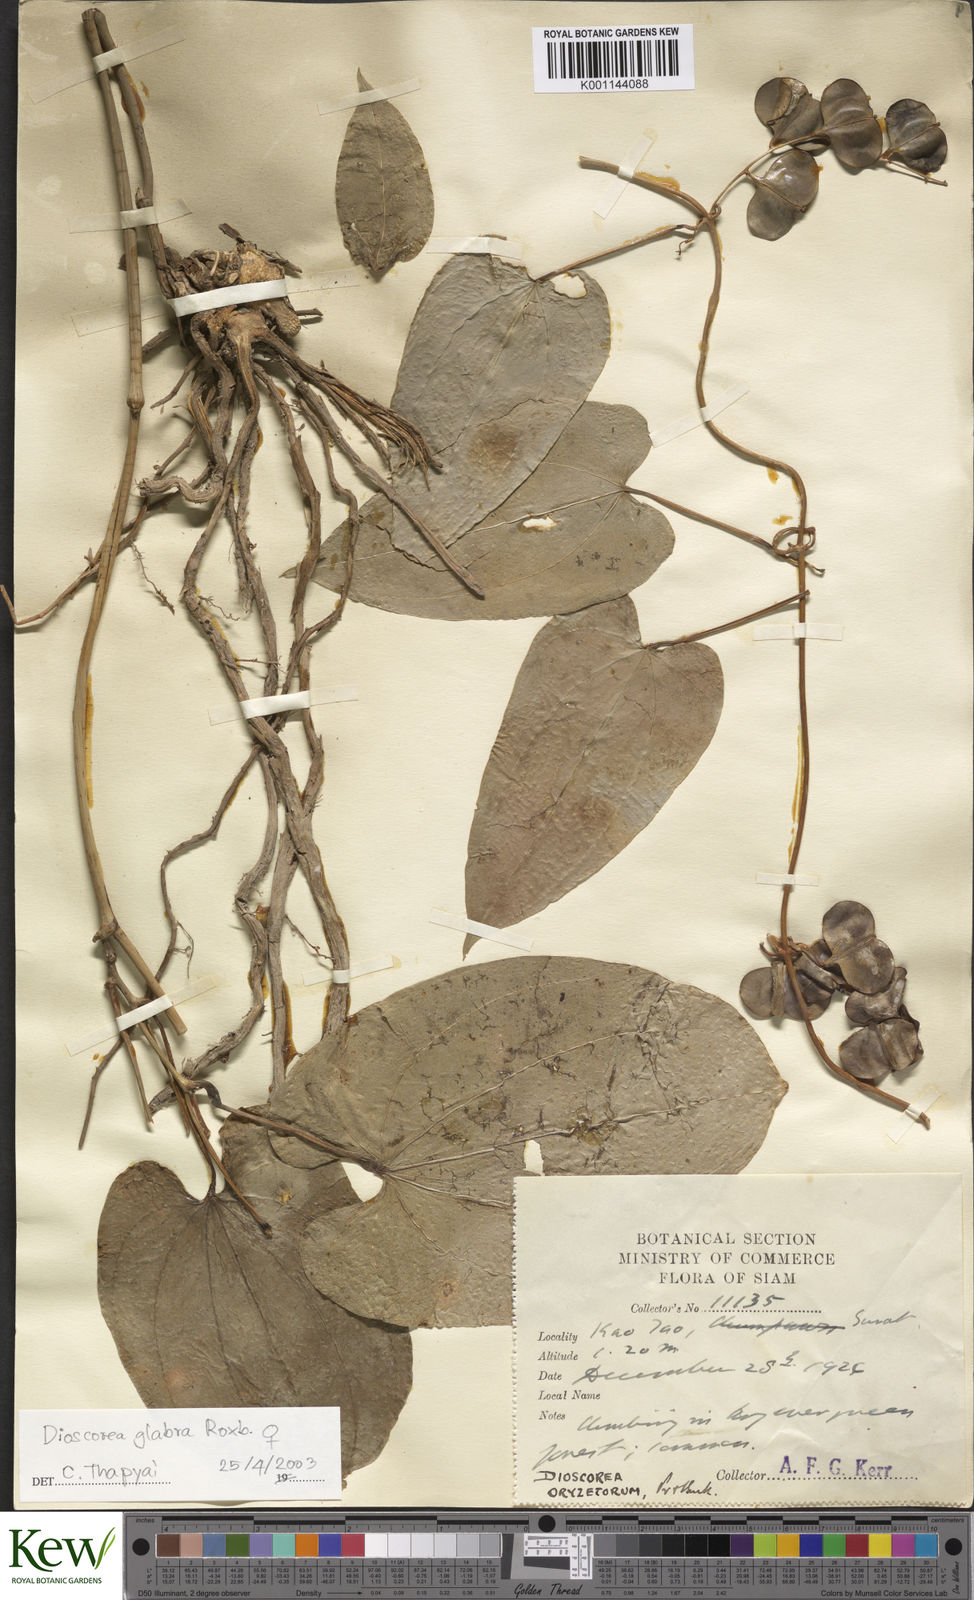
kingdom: Plantae
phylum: Tracheophyta
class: Liliopsida
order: Dioscoreales
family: Dioscoreaceae
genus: Dioscorea
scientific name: Dioscorea glabra
